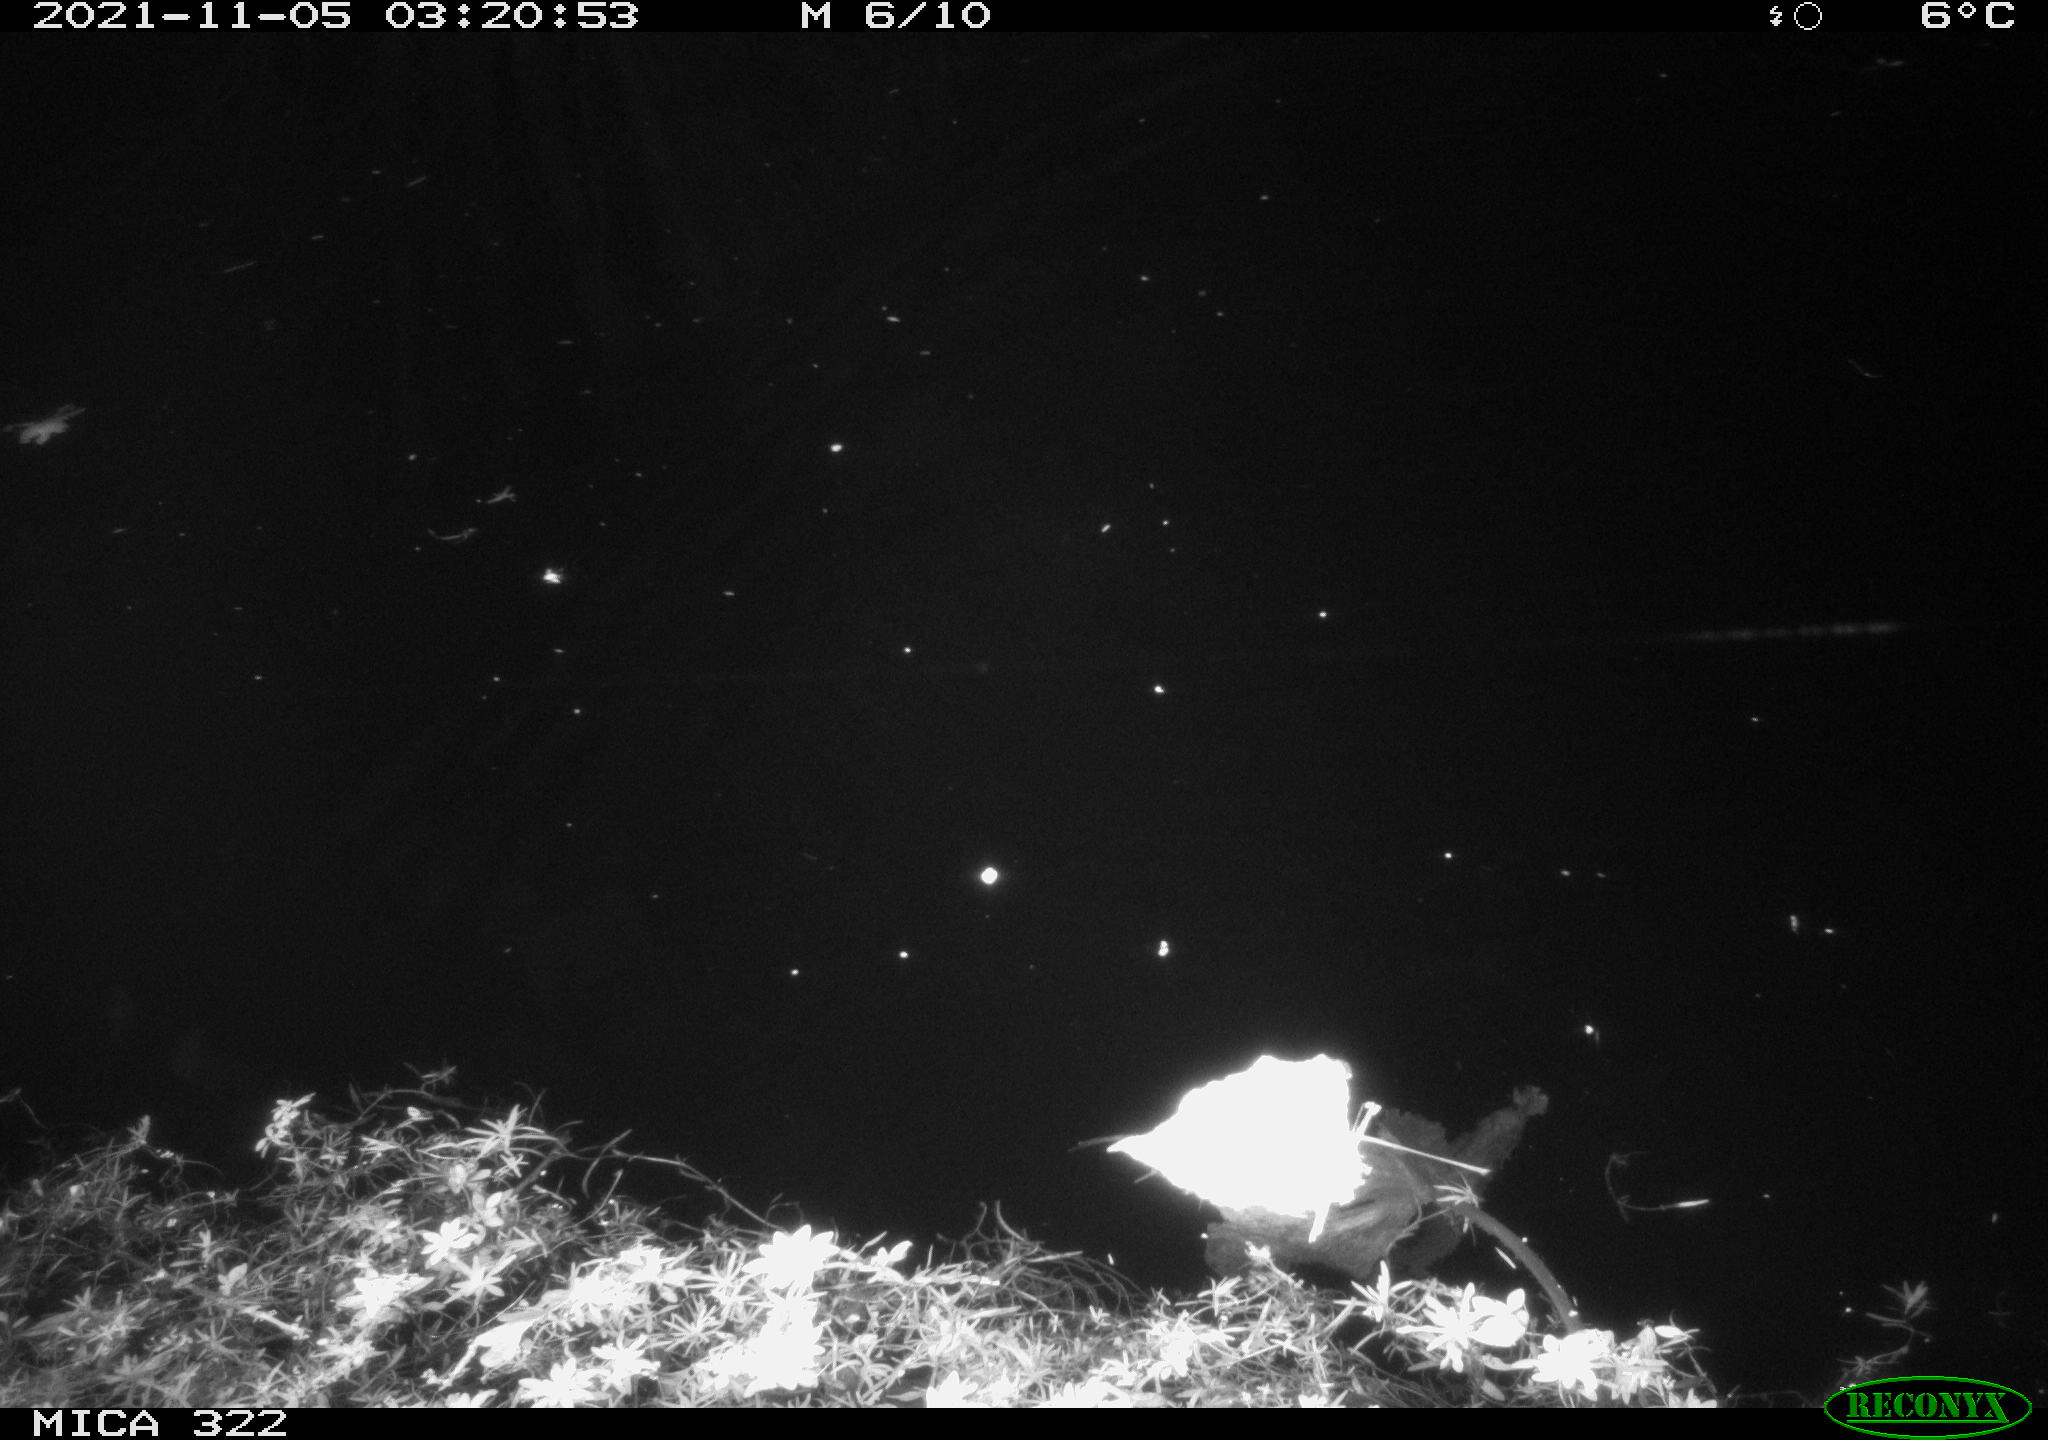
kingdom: Animalia
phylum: Chordata
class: Mammalia
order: Rodentia
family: Muridae
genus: Rattus
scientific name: Rattus norvegicus
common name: Brown rat
